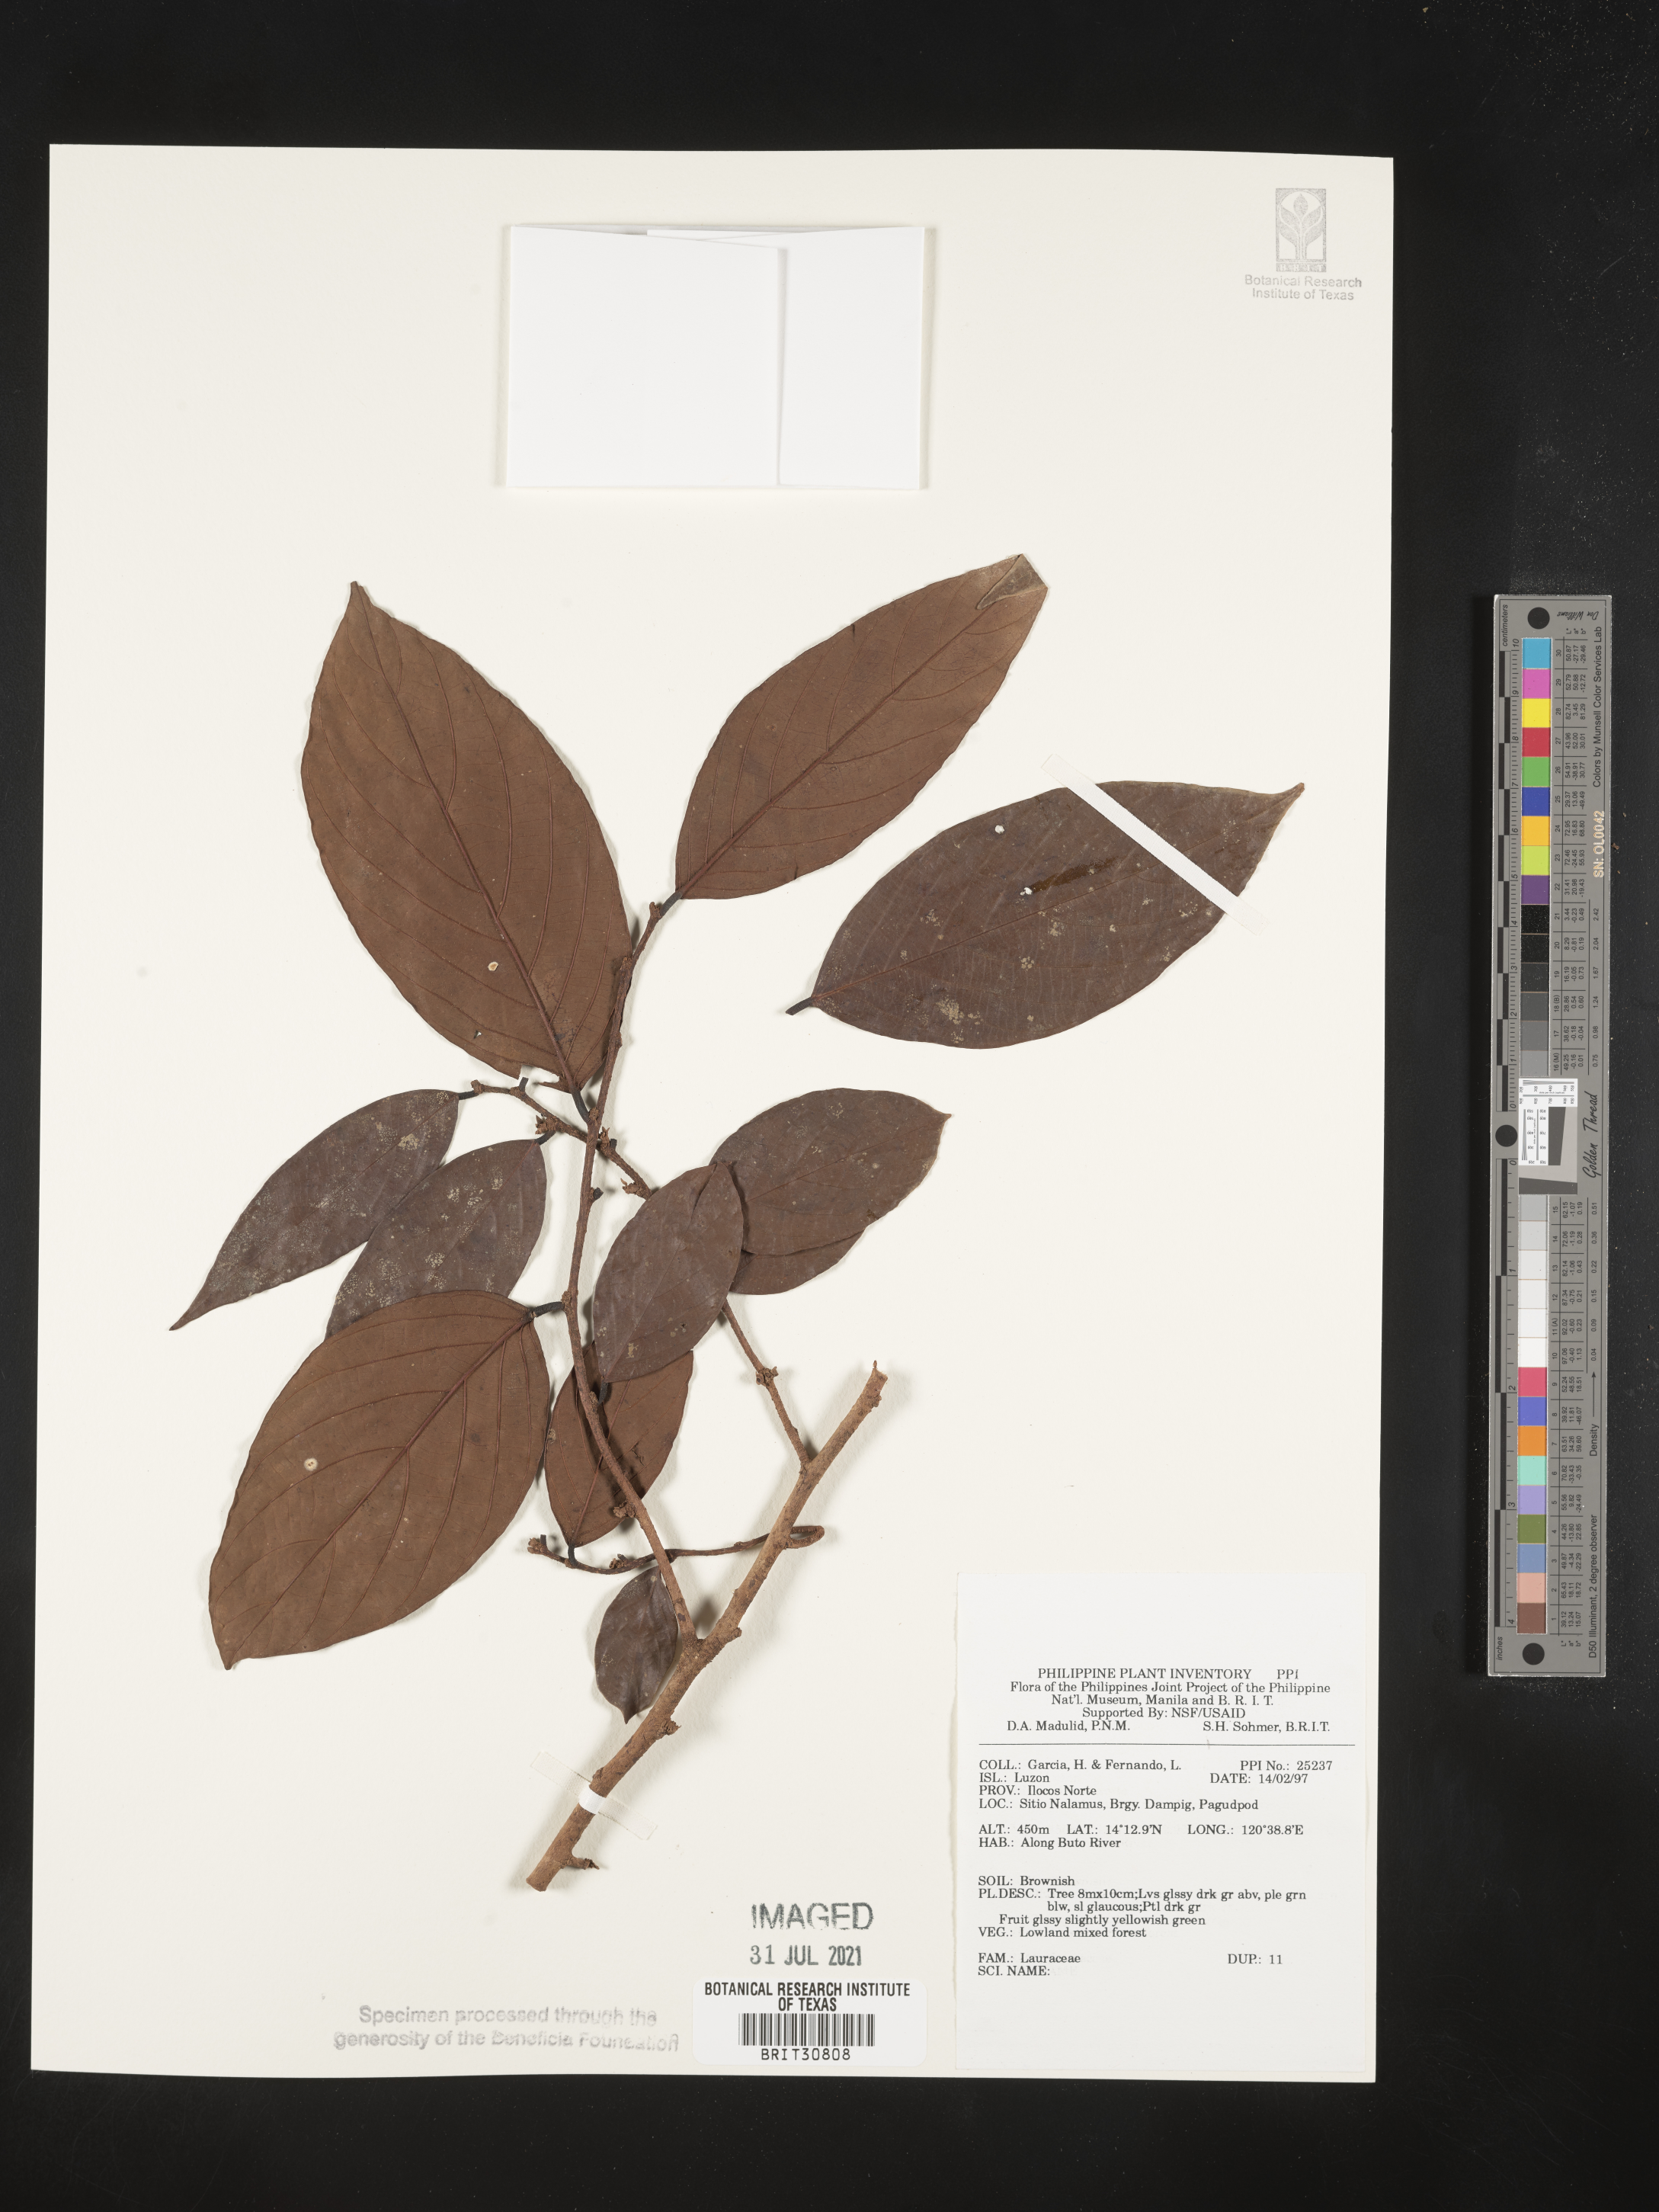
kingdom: Plantae
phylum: Tracheophyta
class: Magnoliopsida
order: Laurales
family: Lauraceae
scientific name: Lauraceae
